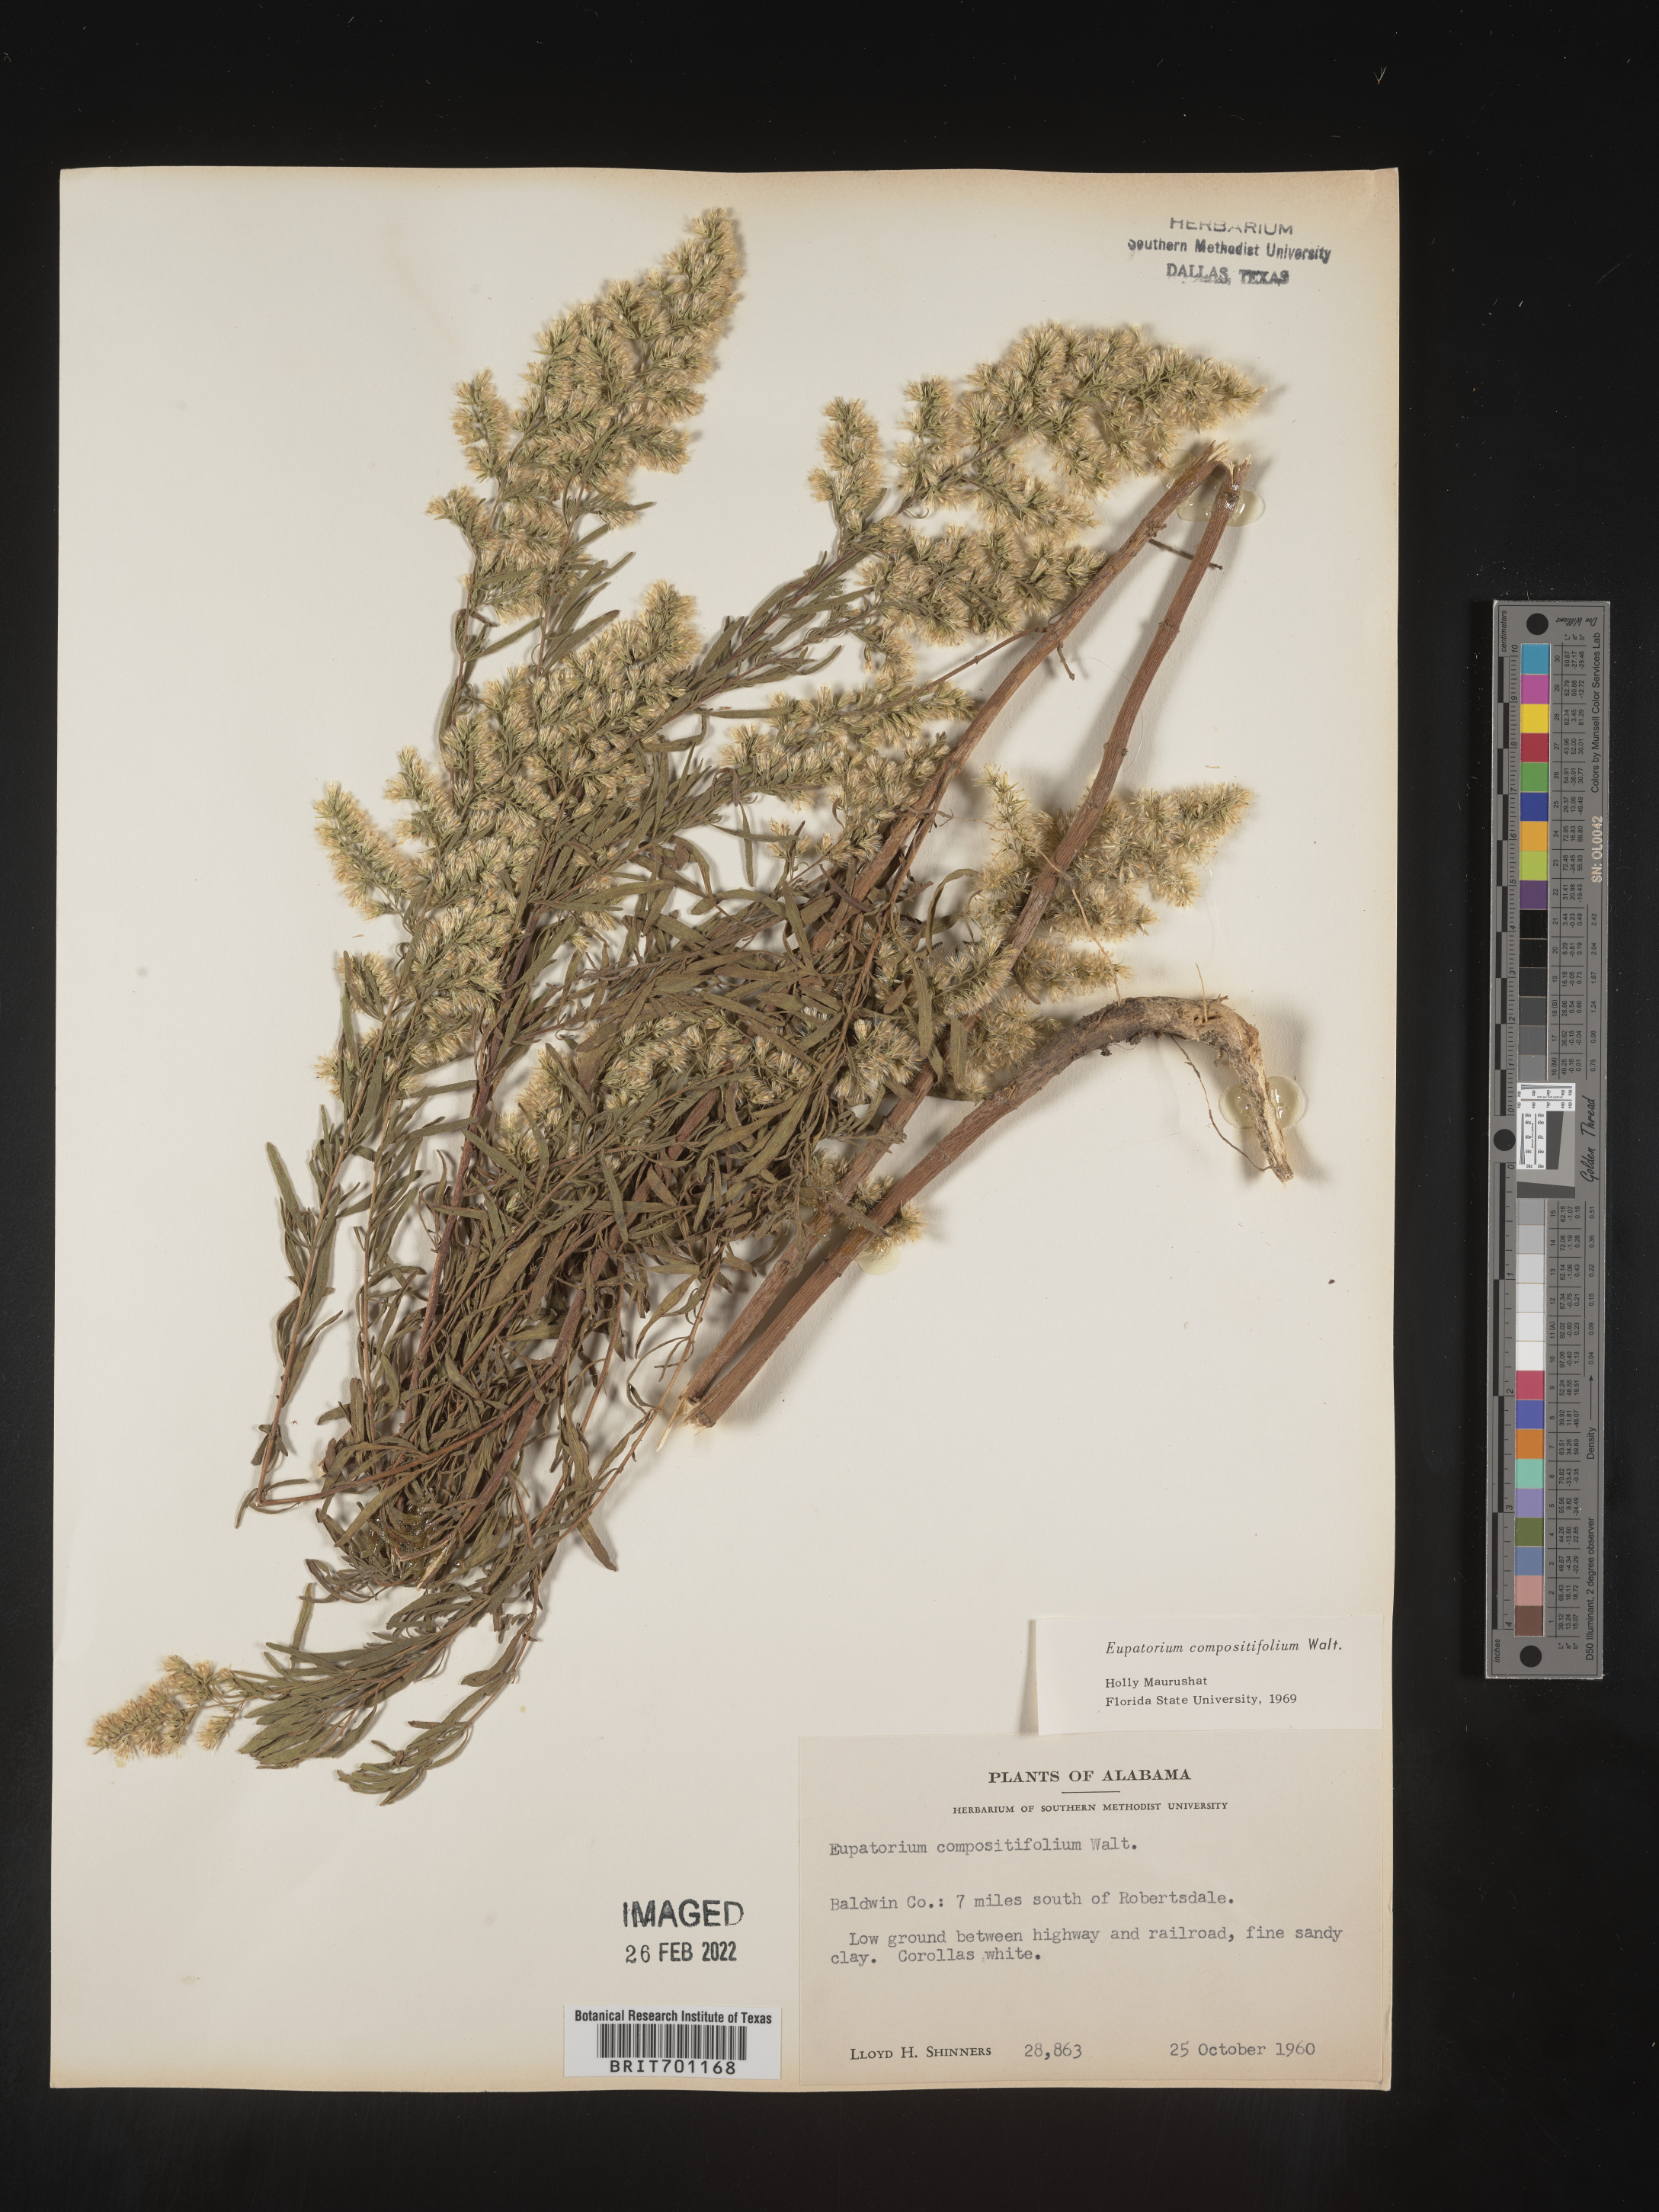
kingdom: Plantae
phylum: Tracheophyta
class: Magnoliopsida
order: Asterales
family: Asteraceae
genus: Eupatorium
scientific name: Eupatorium compositifolium
